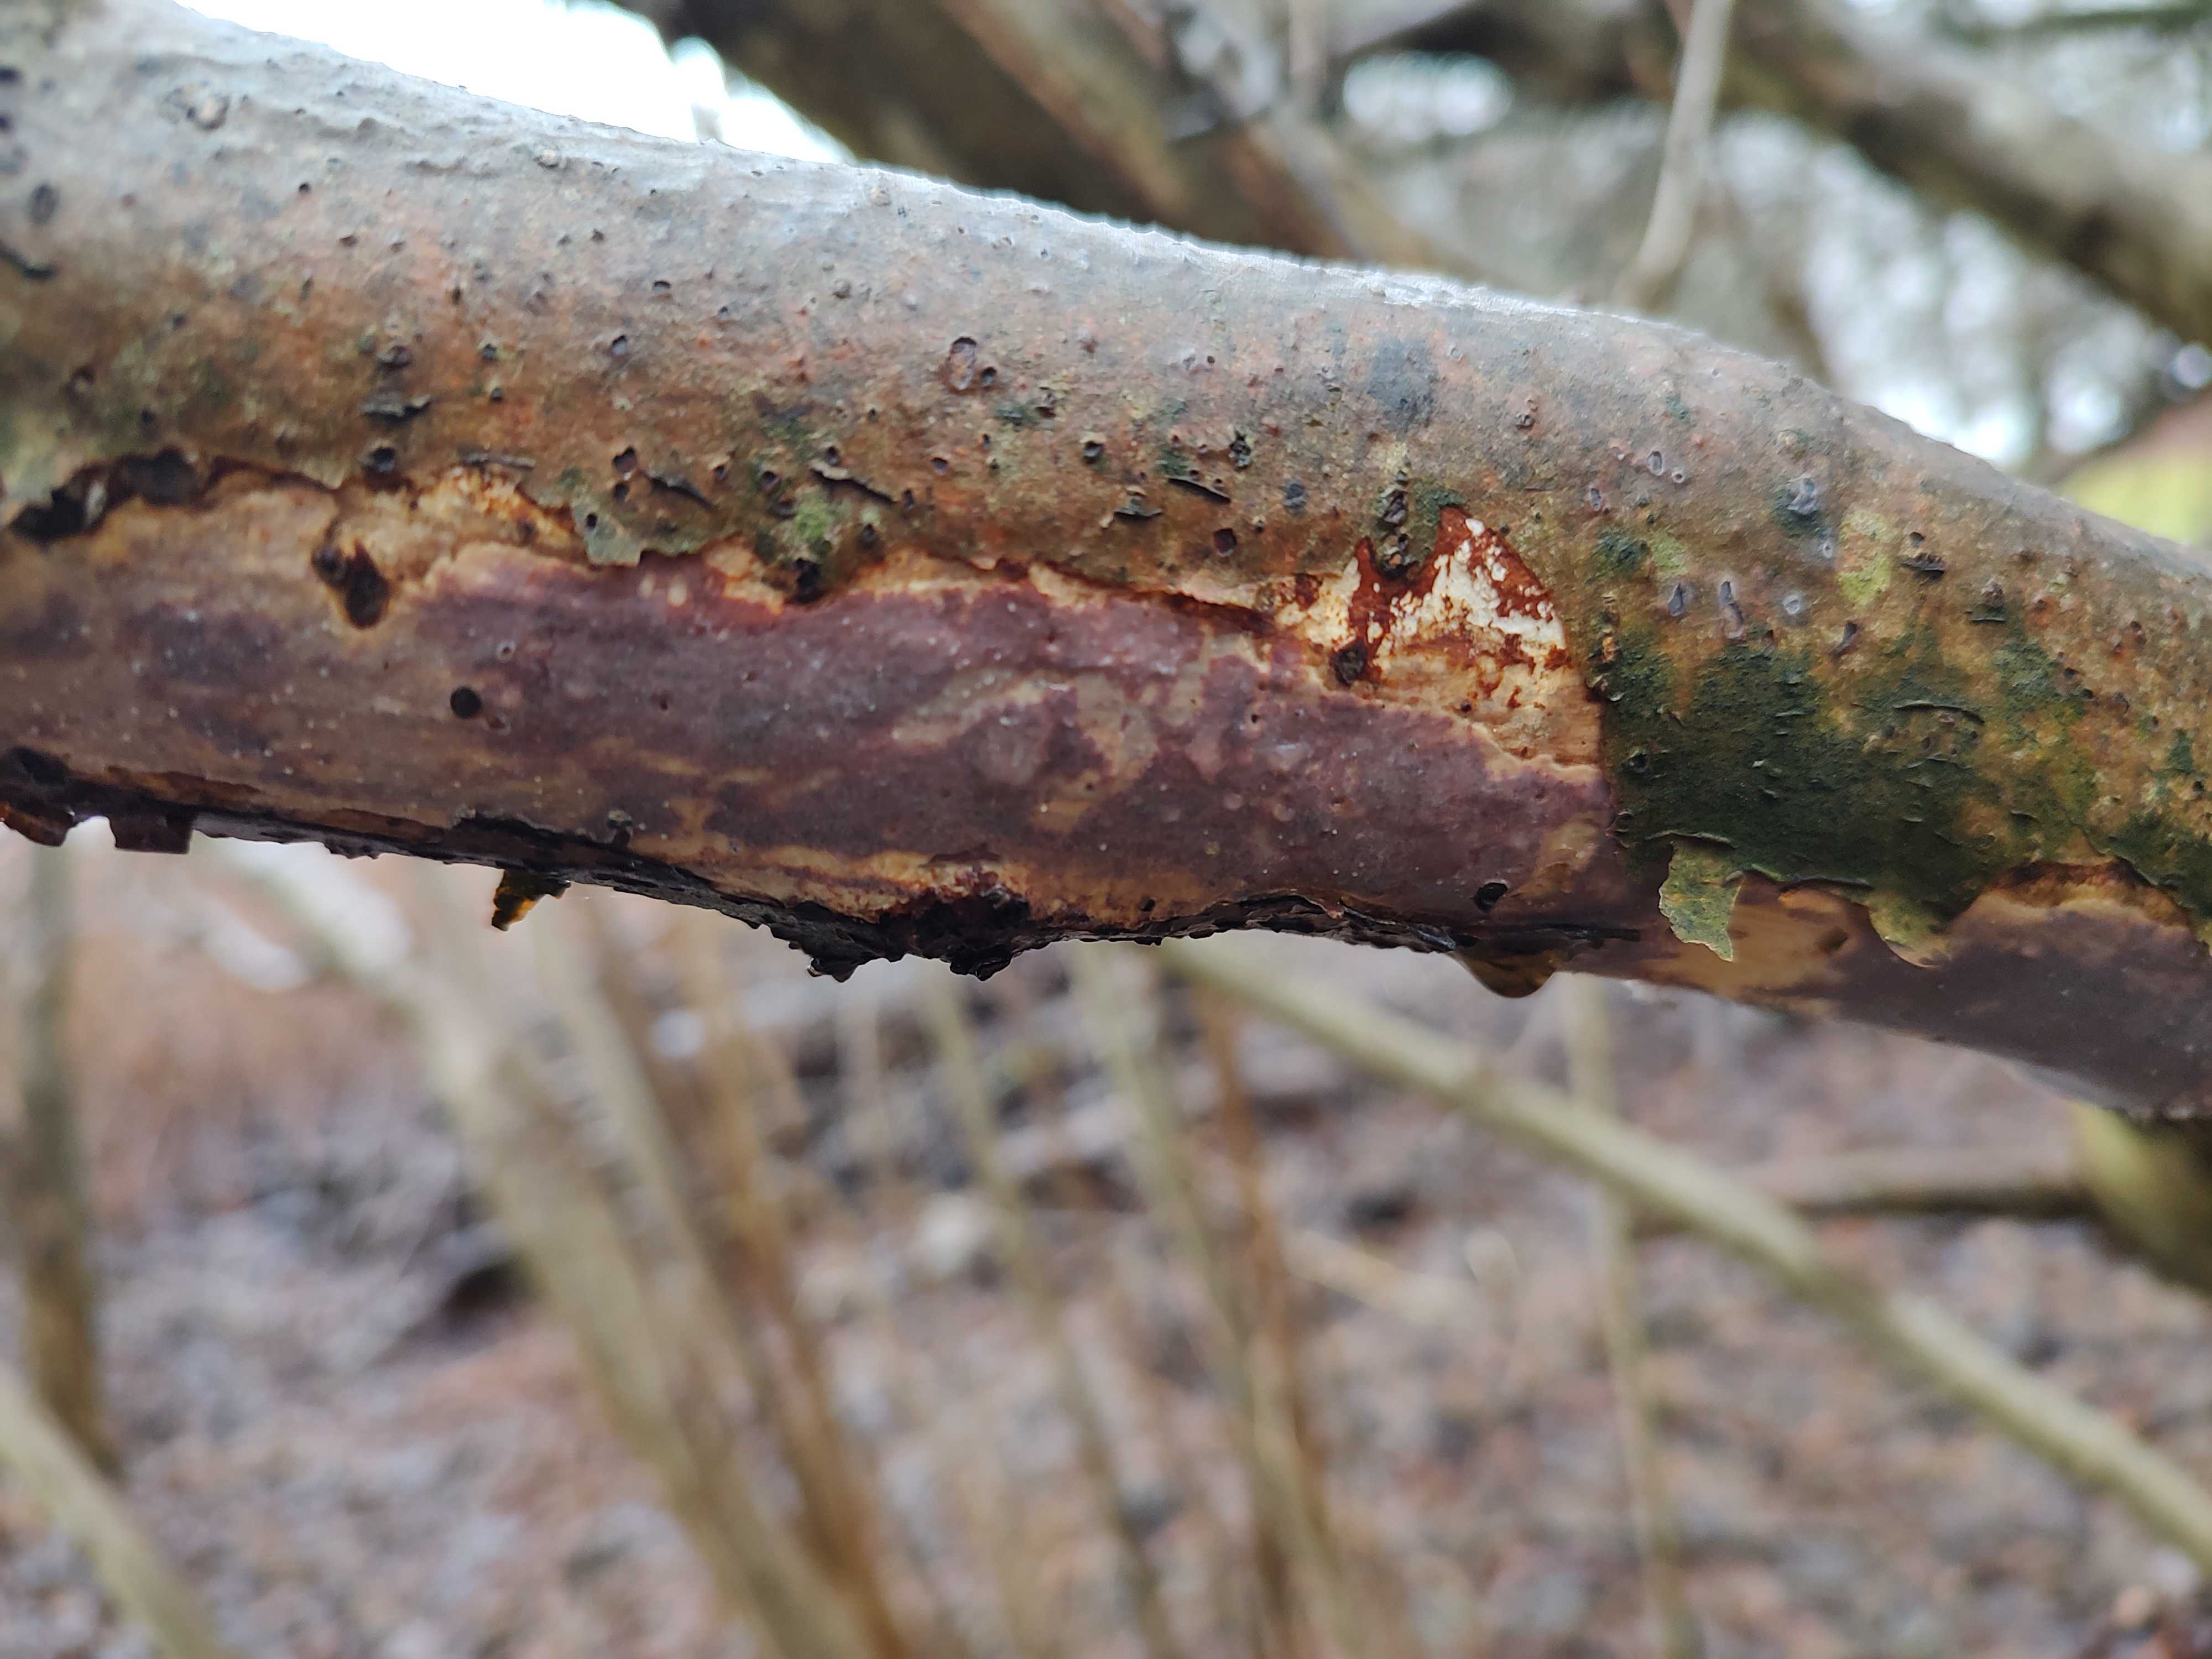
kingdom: Fungi
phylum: Basidiomycota
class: Agaricomycetes
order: Corticiales
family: Vuilleminiaceae
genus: Vuilleminia
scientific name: Vuilleminia coryli
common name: hassel-barksprænger
